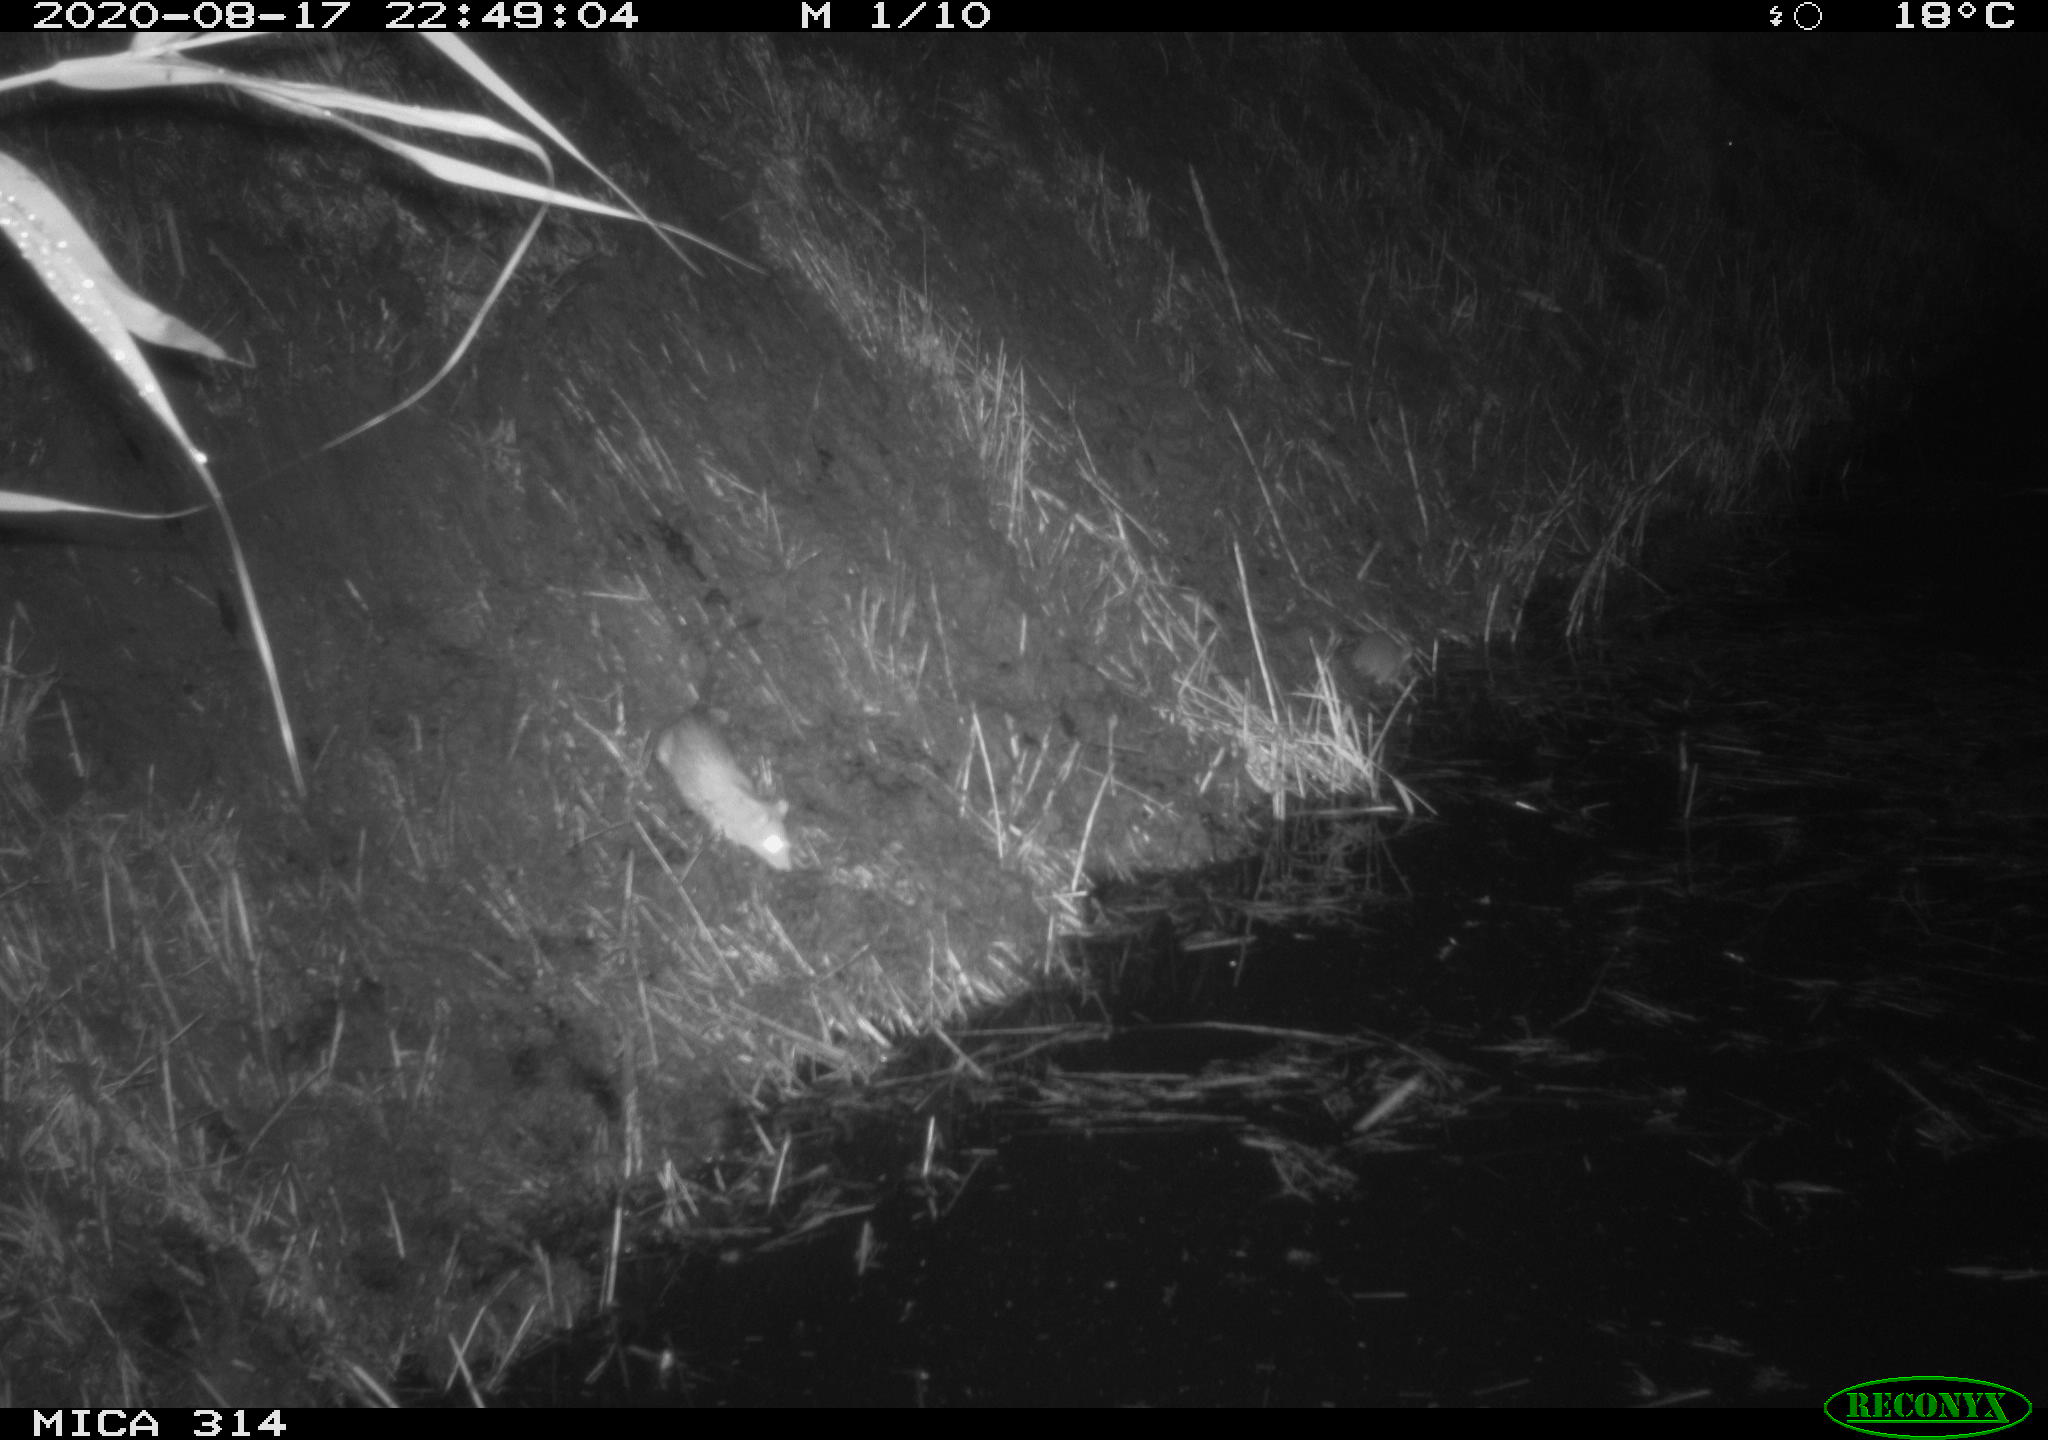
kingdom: Animalia
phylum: Chordata
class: Mammalia
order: Rodentia
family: Muridae
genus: Rattus
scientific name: Rattus norvegicus
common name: Brown rat
